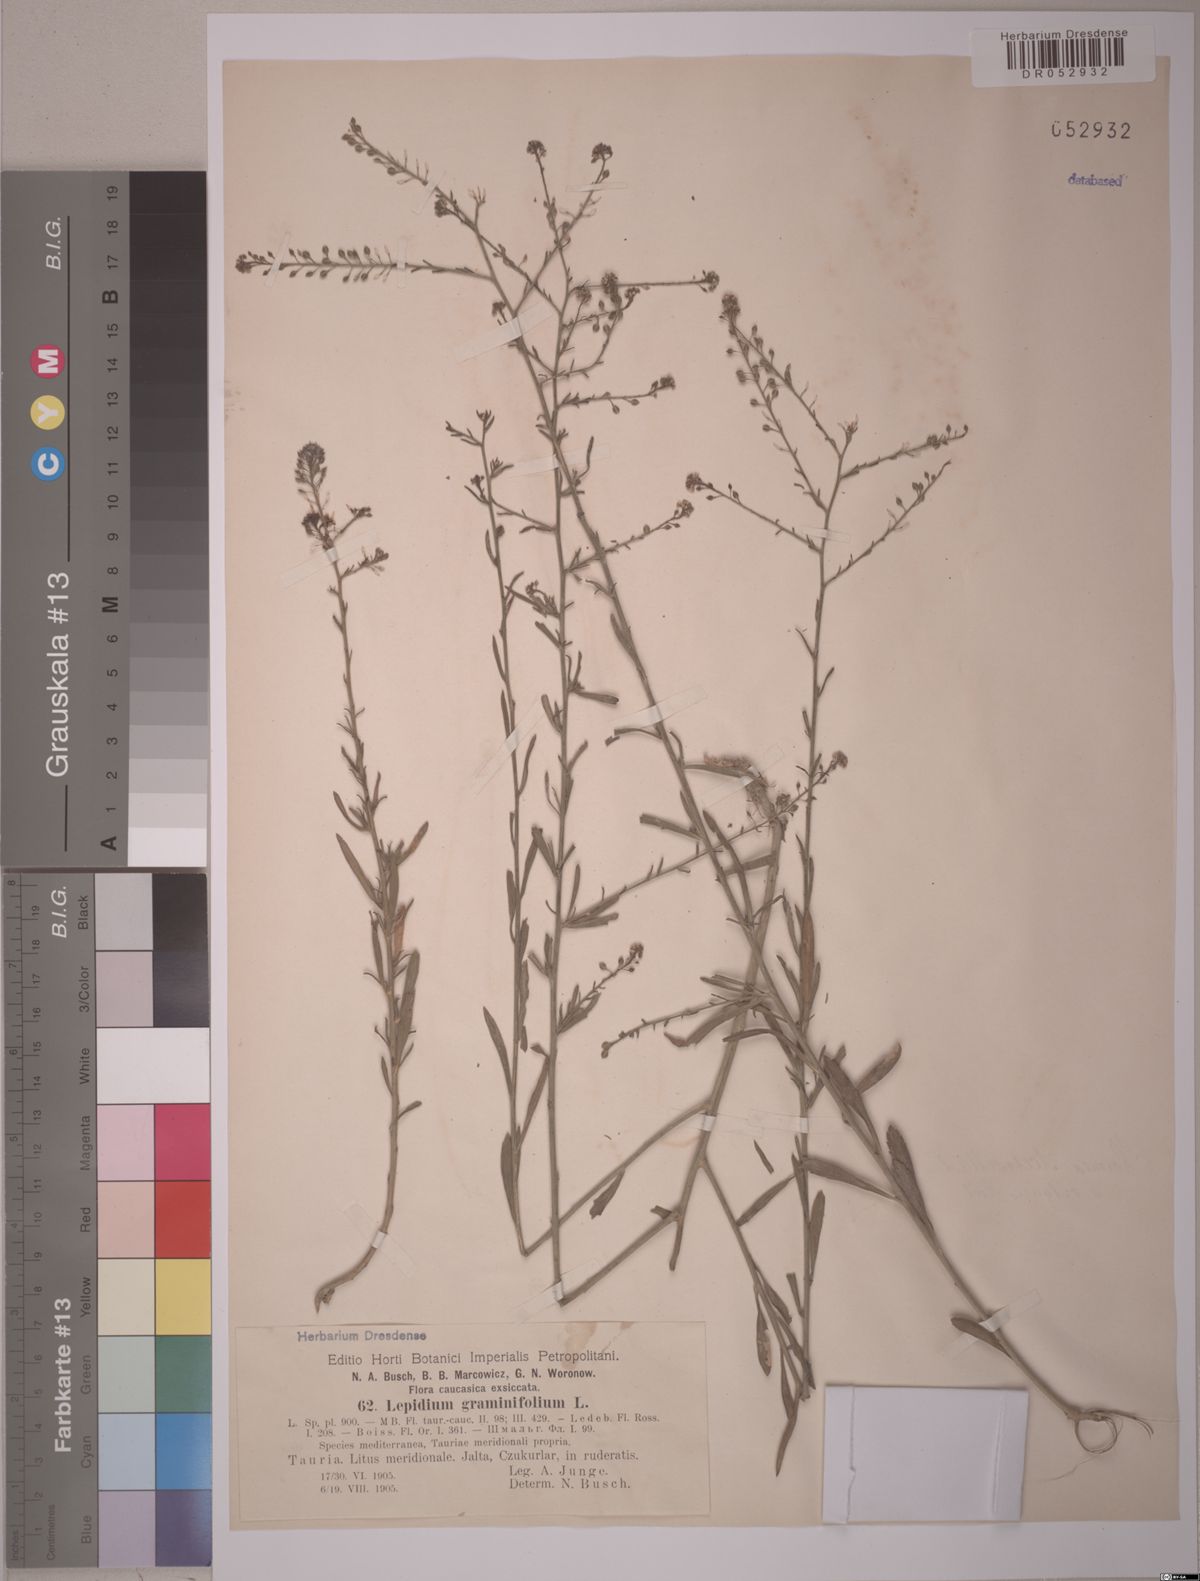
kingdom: Plantae
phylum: Tracheophyta
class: Magnoliopsida
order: Brassicales
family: Brassicaceae
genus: Lepidium
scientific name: Lepidium graminifolium
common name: Tall pepperwort
